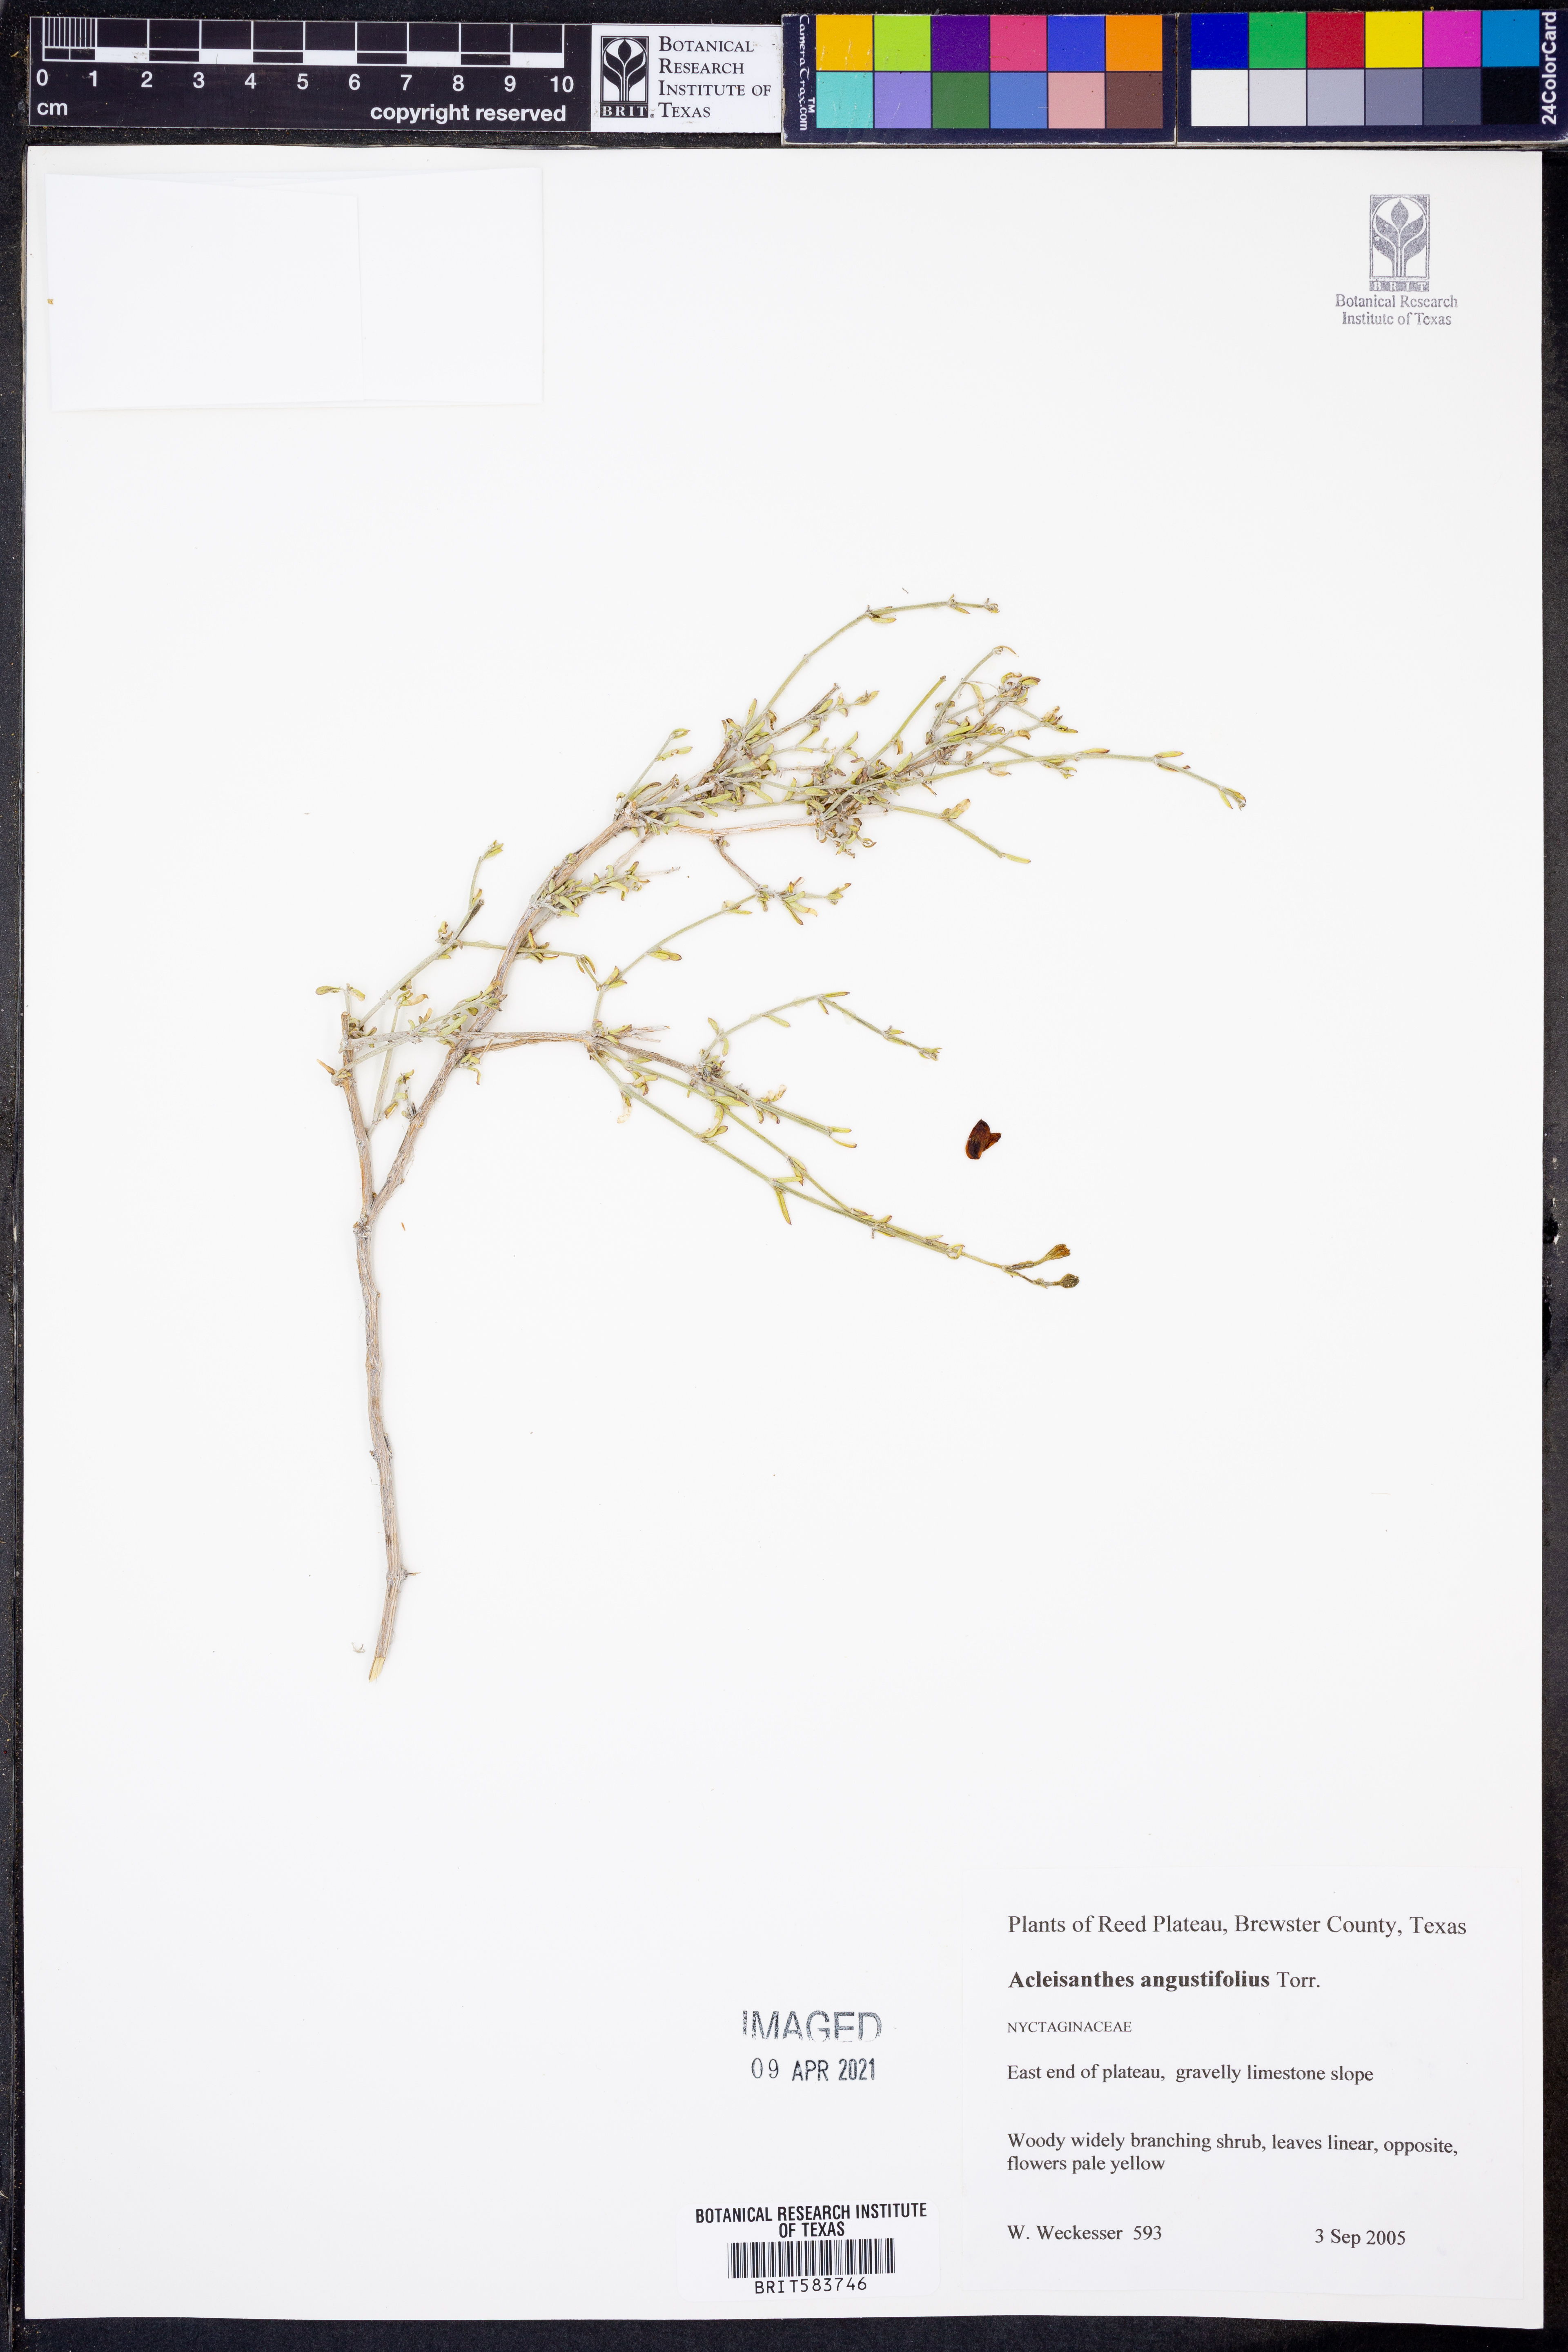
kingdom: Plantae
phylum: Tracheophyta
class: Magnoliopsida
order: Caryophyllales
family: Nyctaginaceae
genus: Acleisanthes
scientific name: Acleisanthes angustifolia
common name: Narrowleaf moonpod
